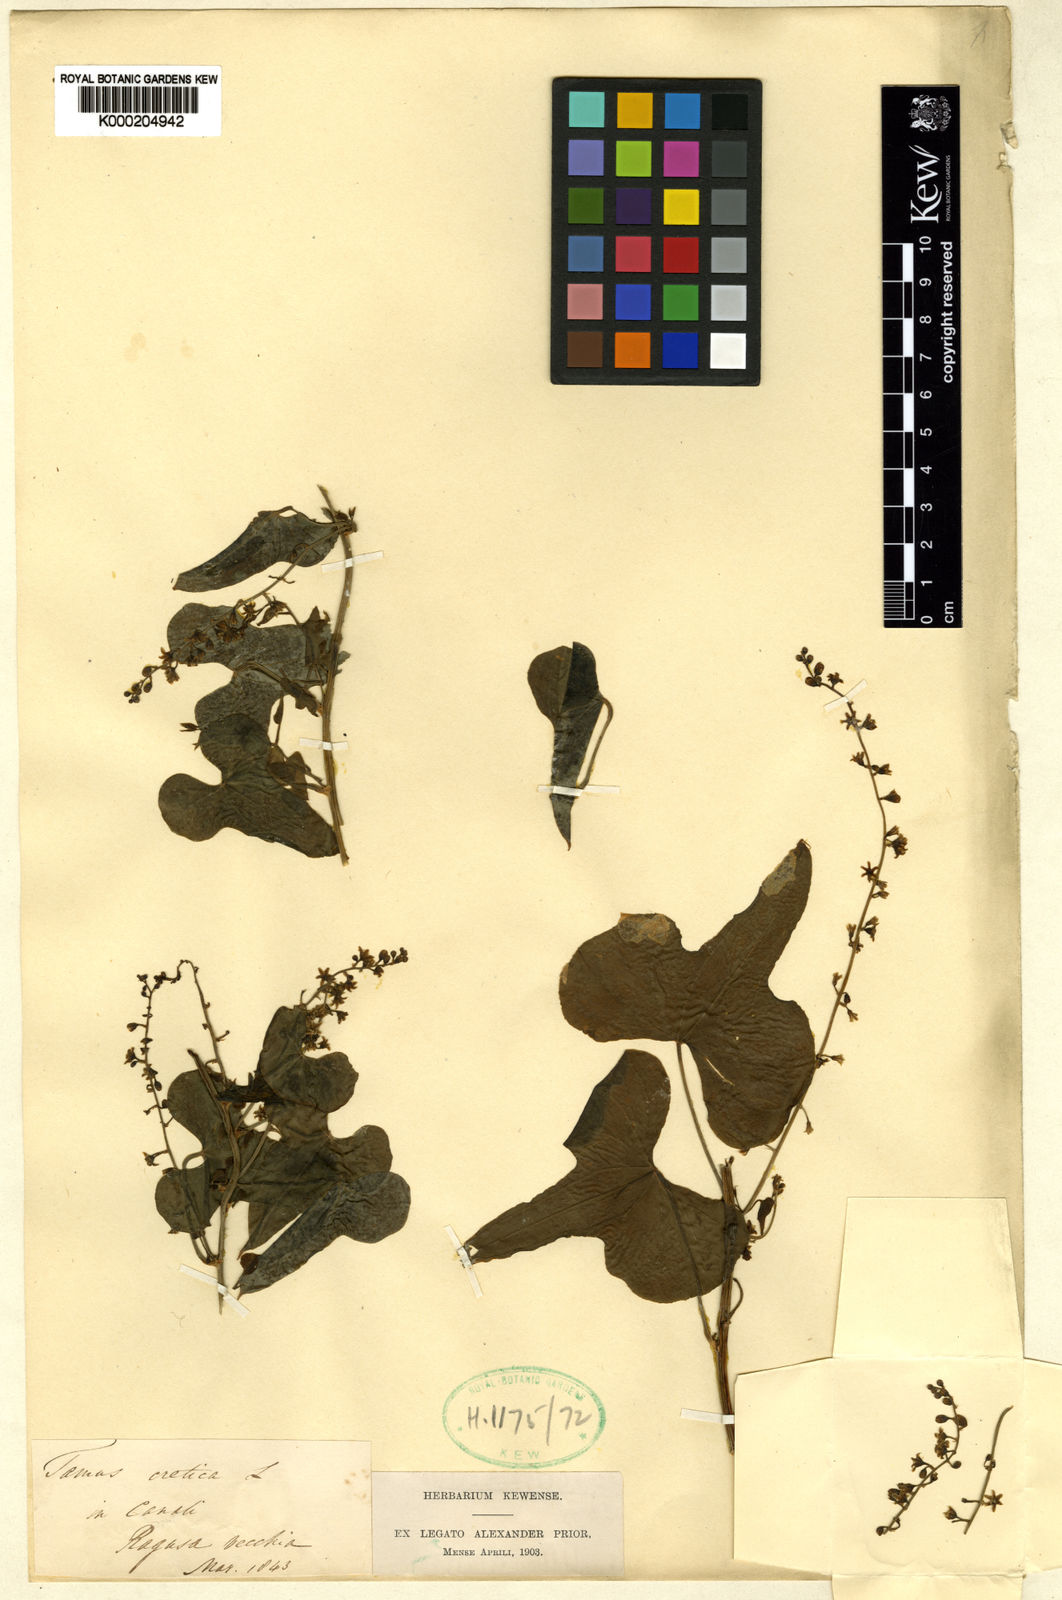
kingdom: Plantae
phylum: Tracheophyta
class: Liliopsida
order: Dioscoreales
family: Dioscoreaceae
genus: Dioscorea
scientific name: Dioscorea communis
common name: Black-bindweed
